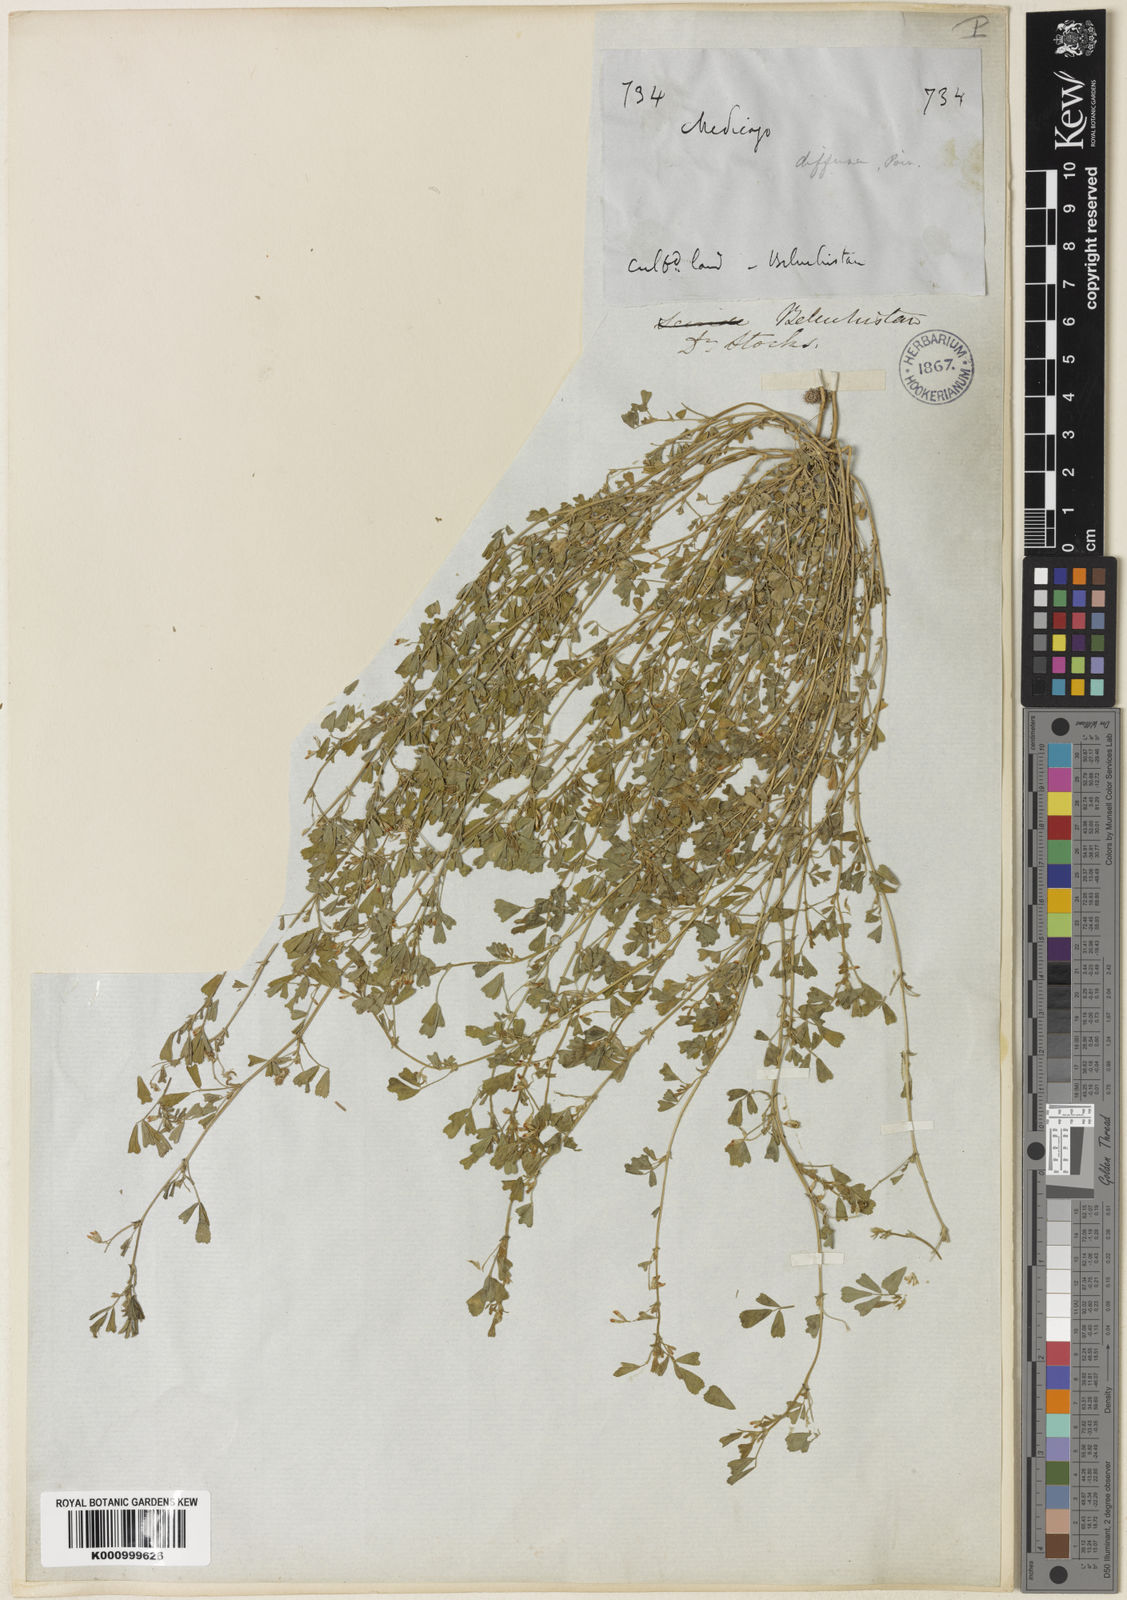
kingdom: Plantae
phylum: Tracheophyta
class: Magnoliopsida
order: Fabales
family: Fabaceae
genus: Medicago
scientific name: Medicago laciniata
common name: Tattered medick
